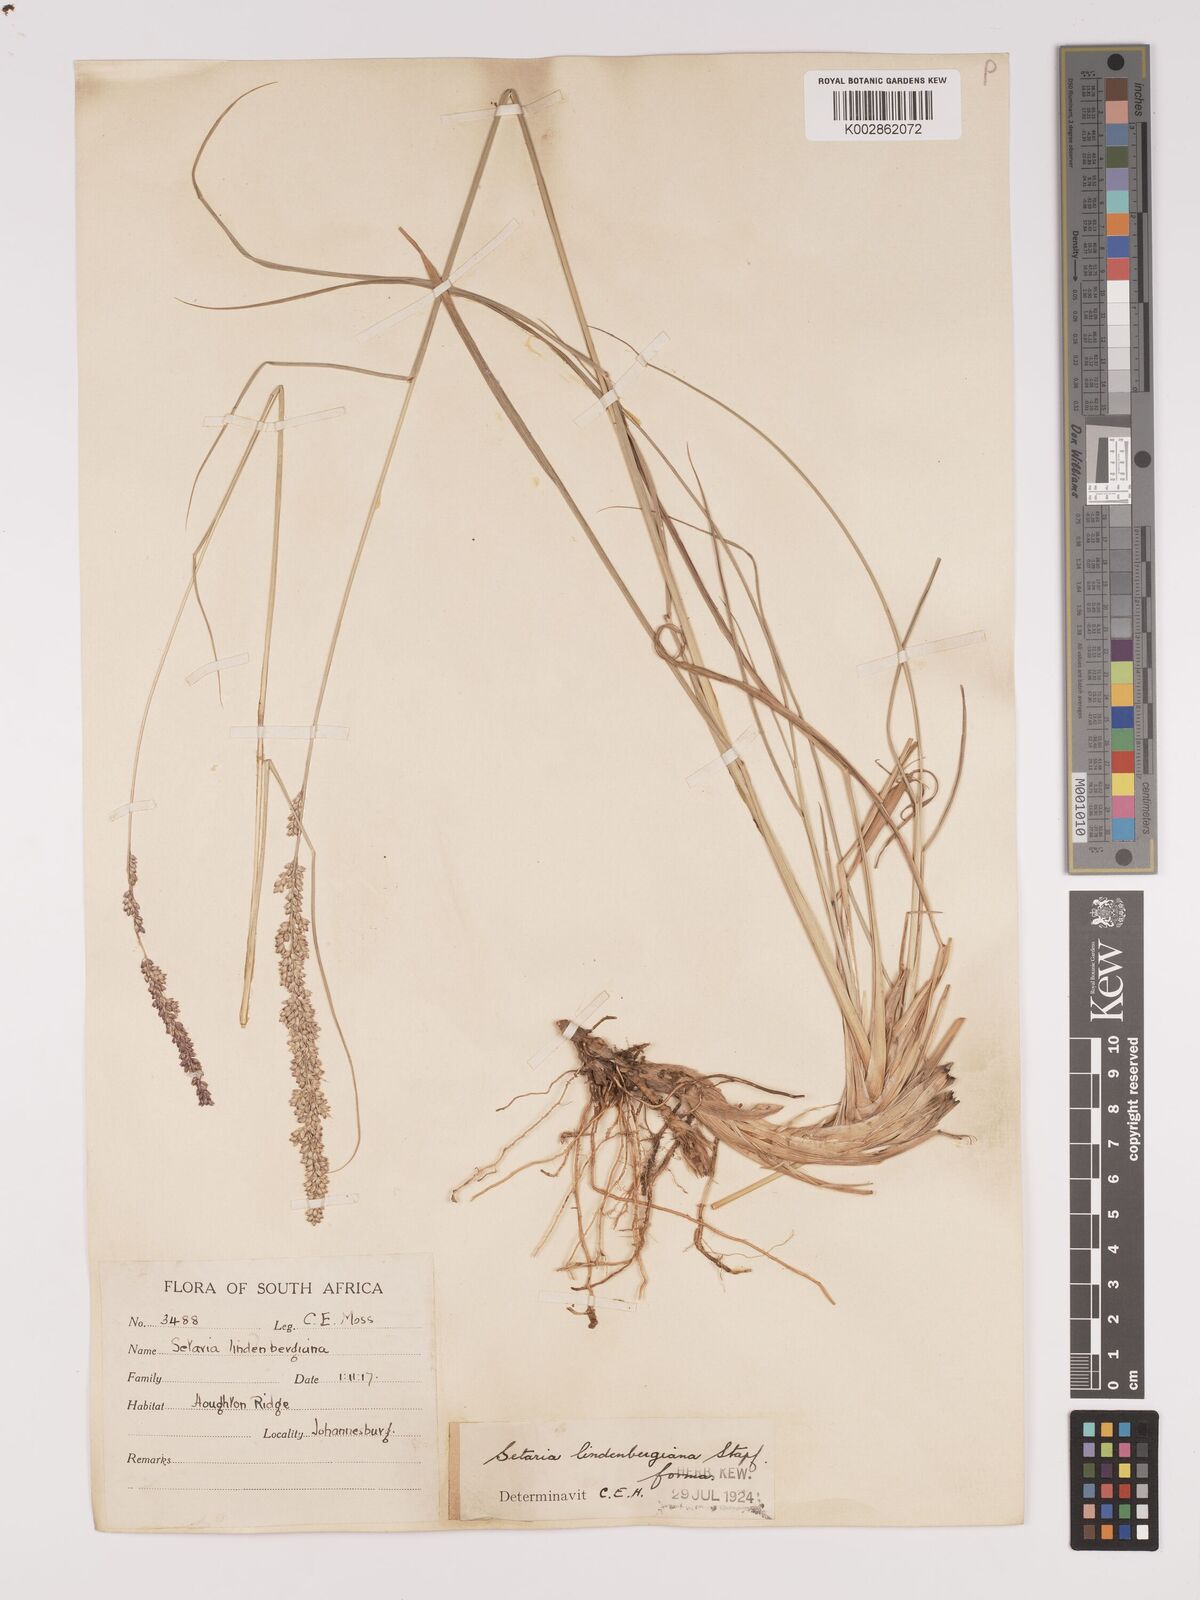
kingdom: Plantae
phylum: Tracheophyta
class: Liliopsida
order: Poales
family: Poaceae
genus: Setaria
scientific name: Setaria lindenbergiana
